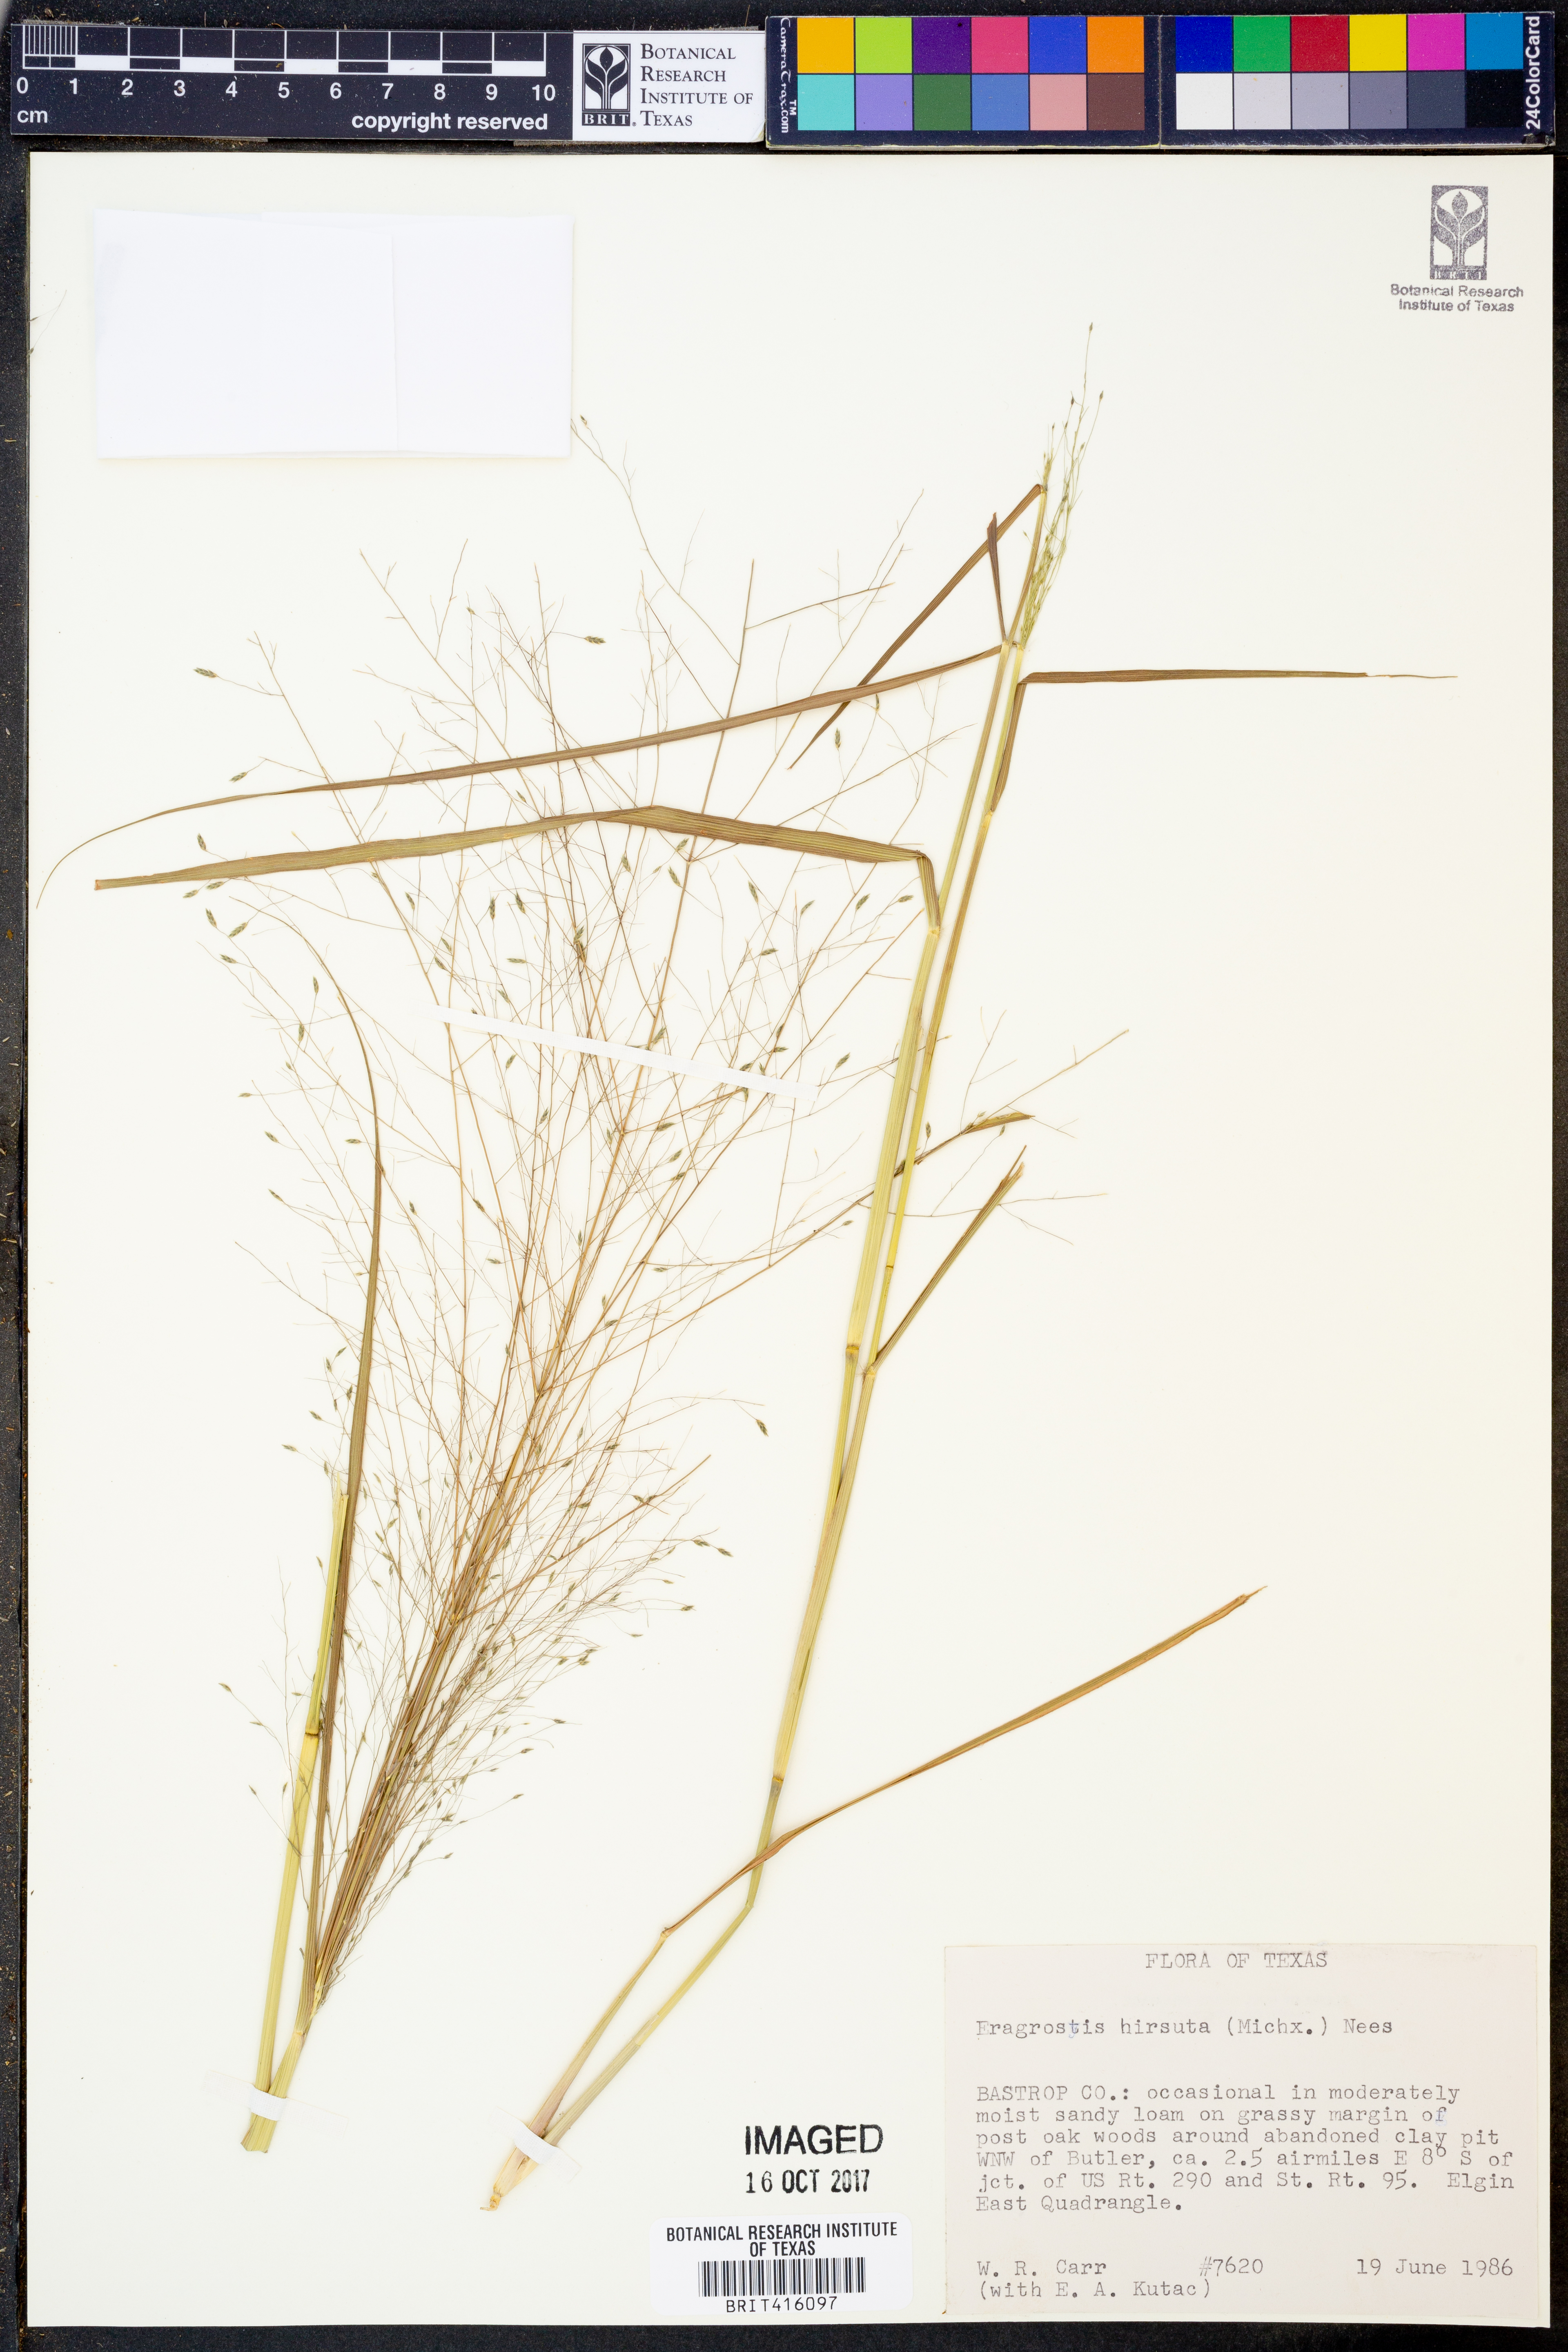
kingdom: Plantae
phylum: Tracheophyta
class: Liliopsida
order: Poales
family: Poaceae
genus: Eragrostis
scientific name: Eragrostis hirsuta
